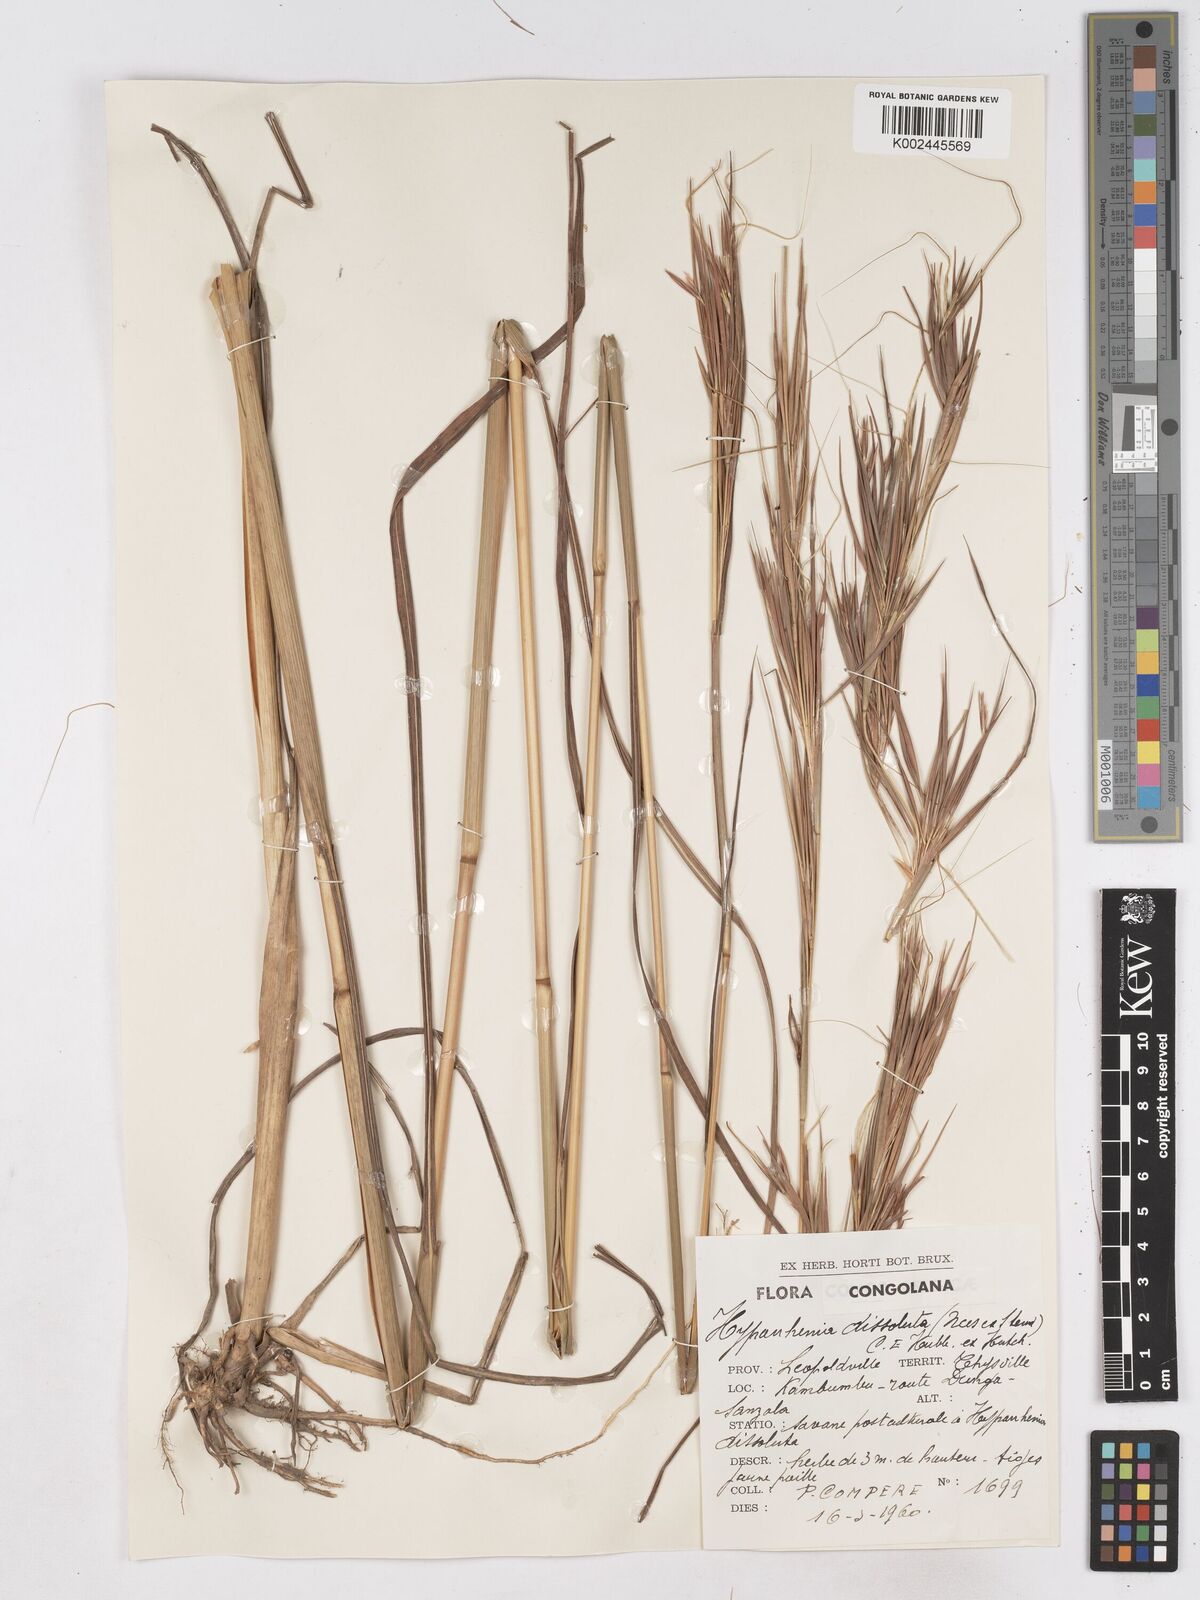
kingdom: Plantae
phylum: Tracheophyta
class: Liliopsida
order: Poales
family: Poaceae
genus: Hyperthelia
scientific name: Hyperthelia dissoluta
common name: Yellow thatching grass
